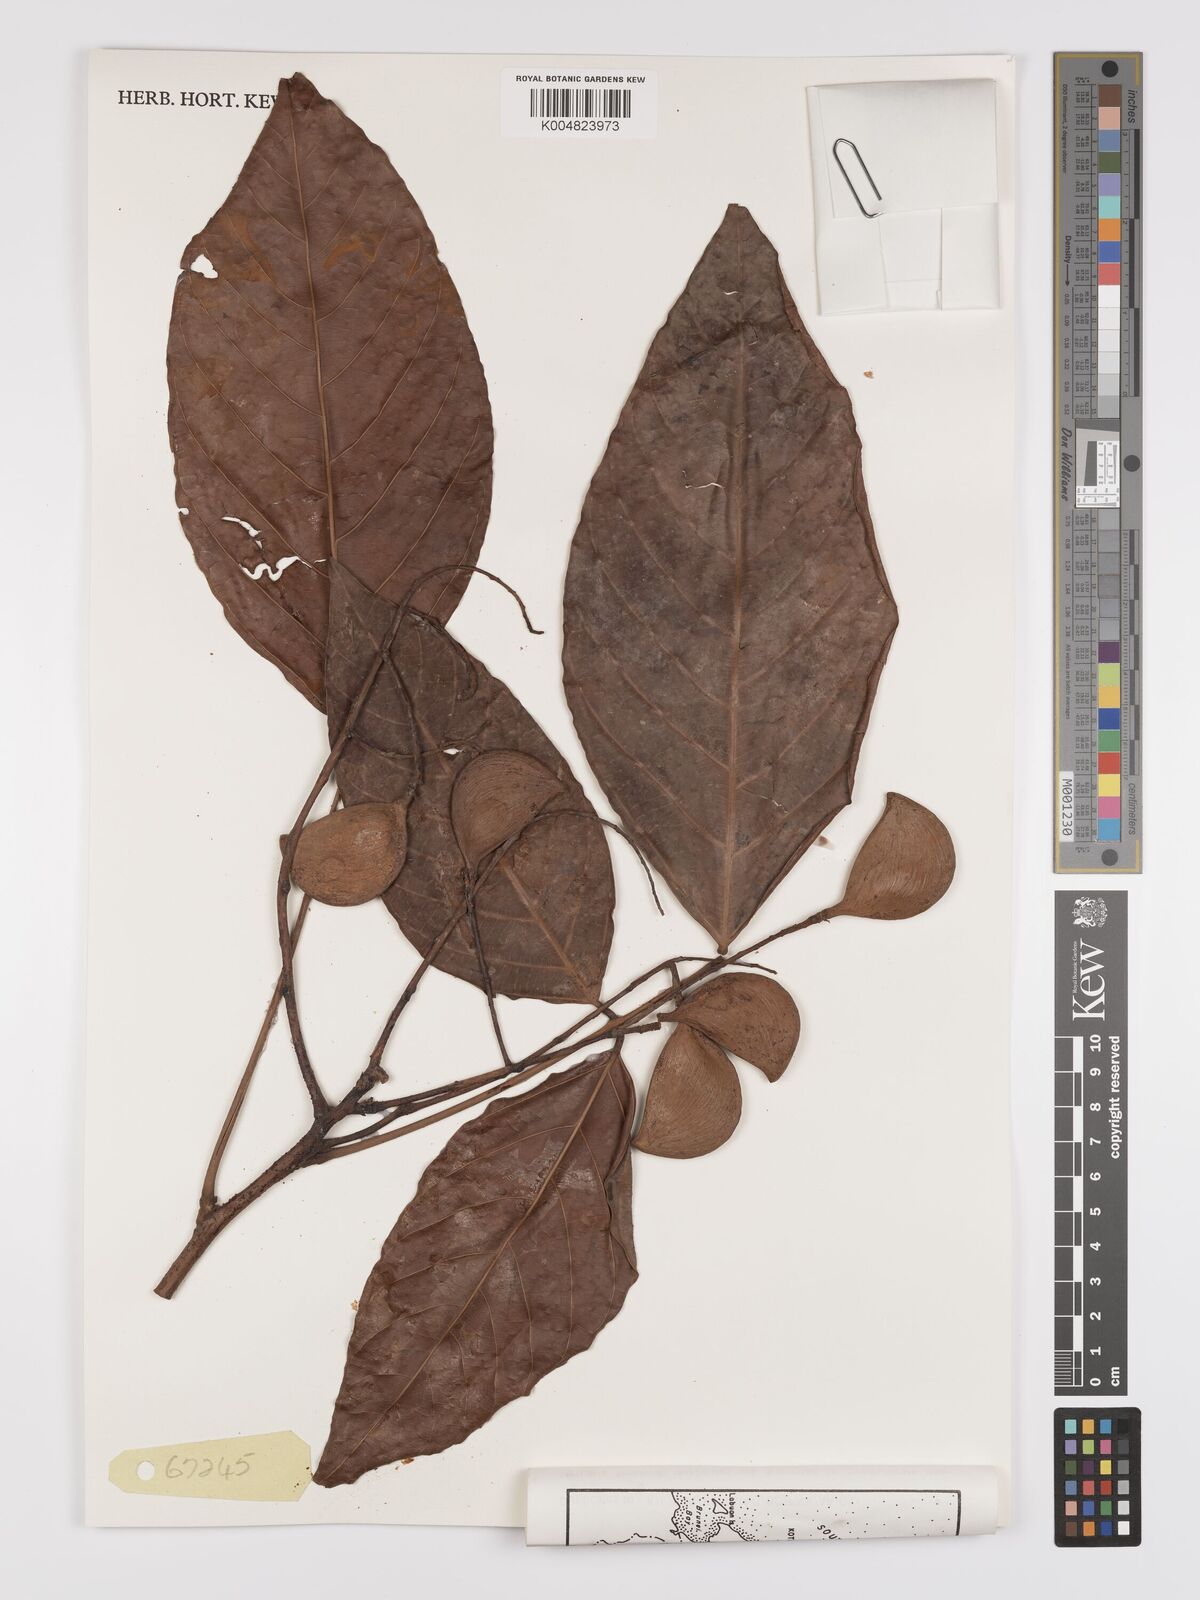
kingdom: Plantae
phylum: Tracheophyta
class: Magnoliopsida
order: Oxalidales
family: Connaraceae
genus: Connarus
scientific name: Connarus grandis
